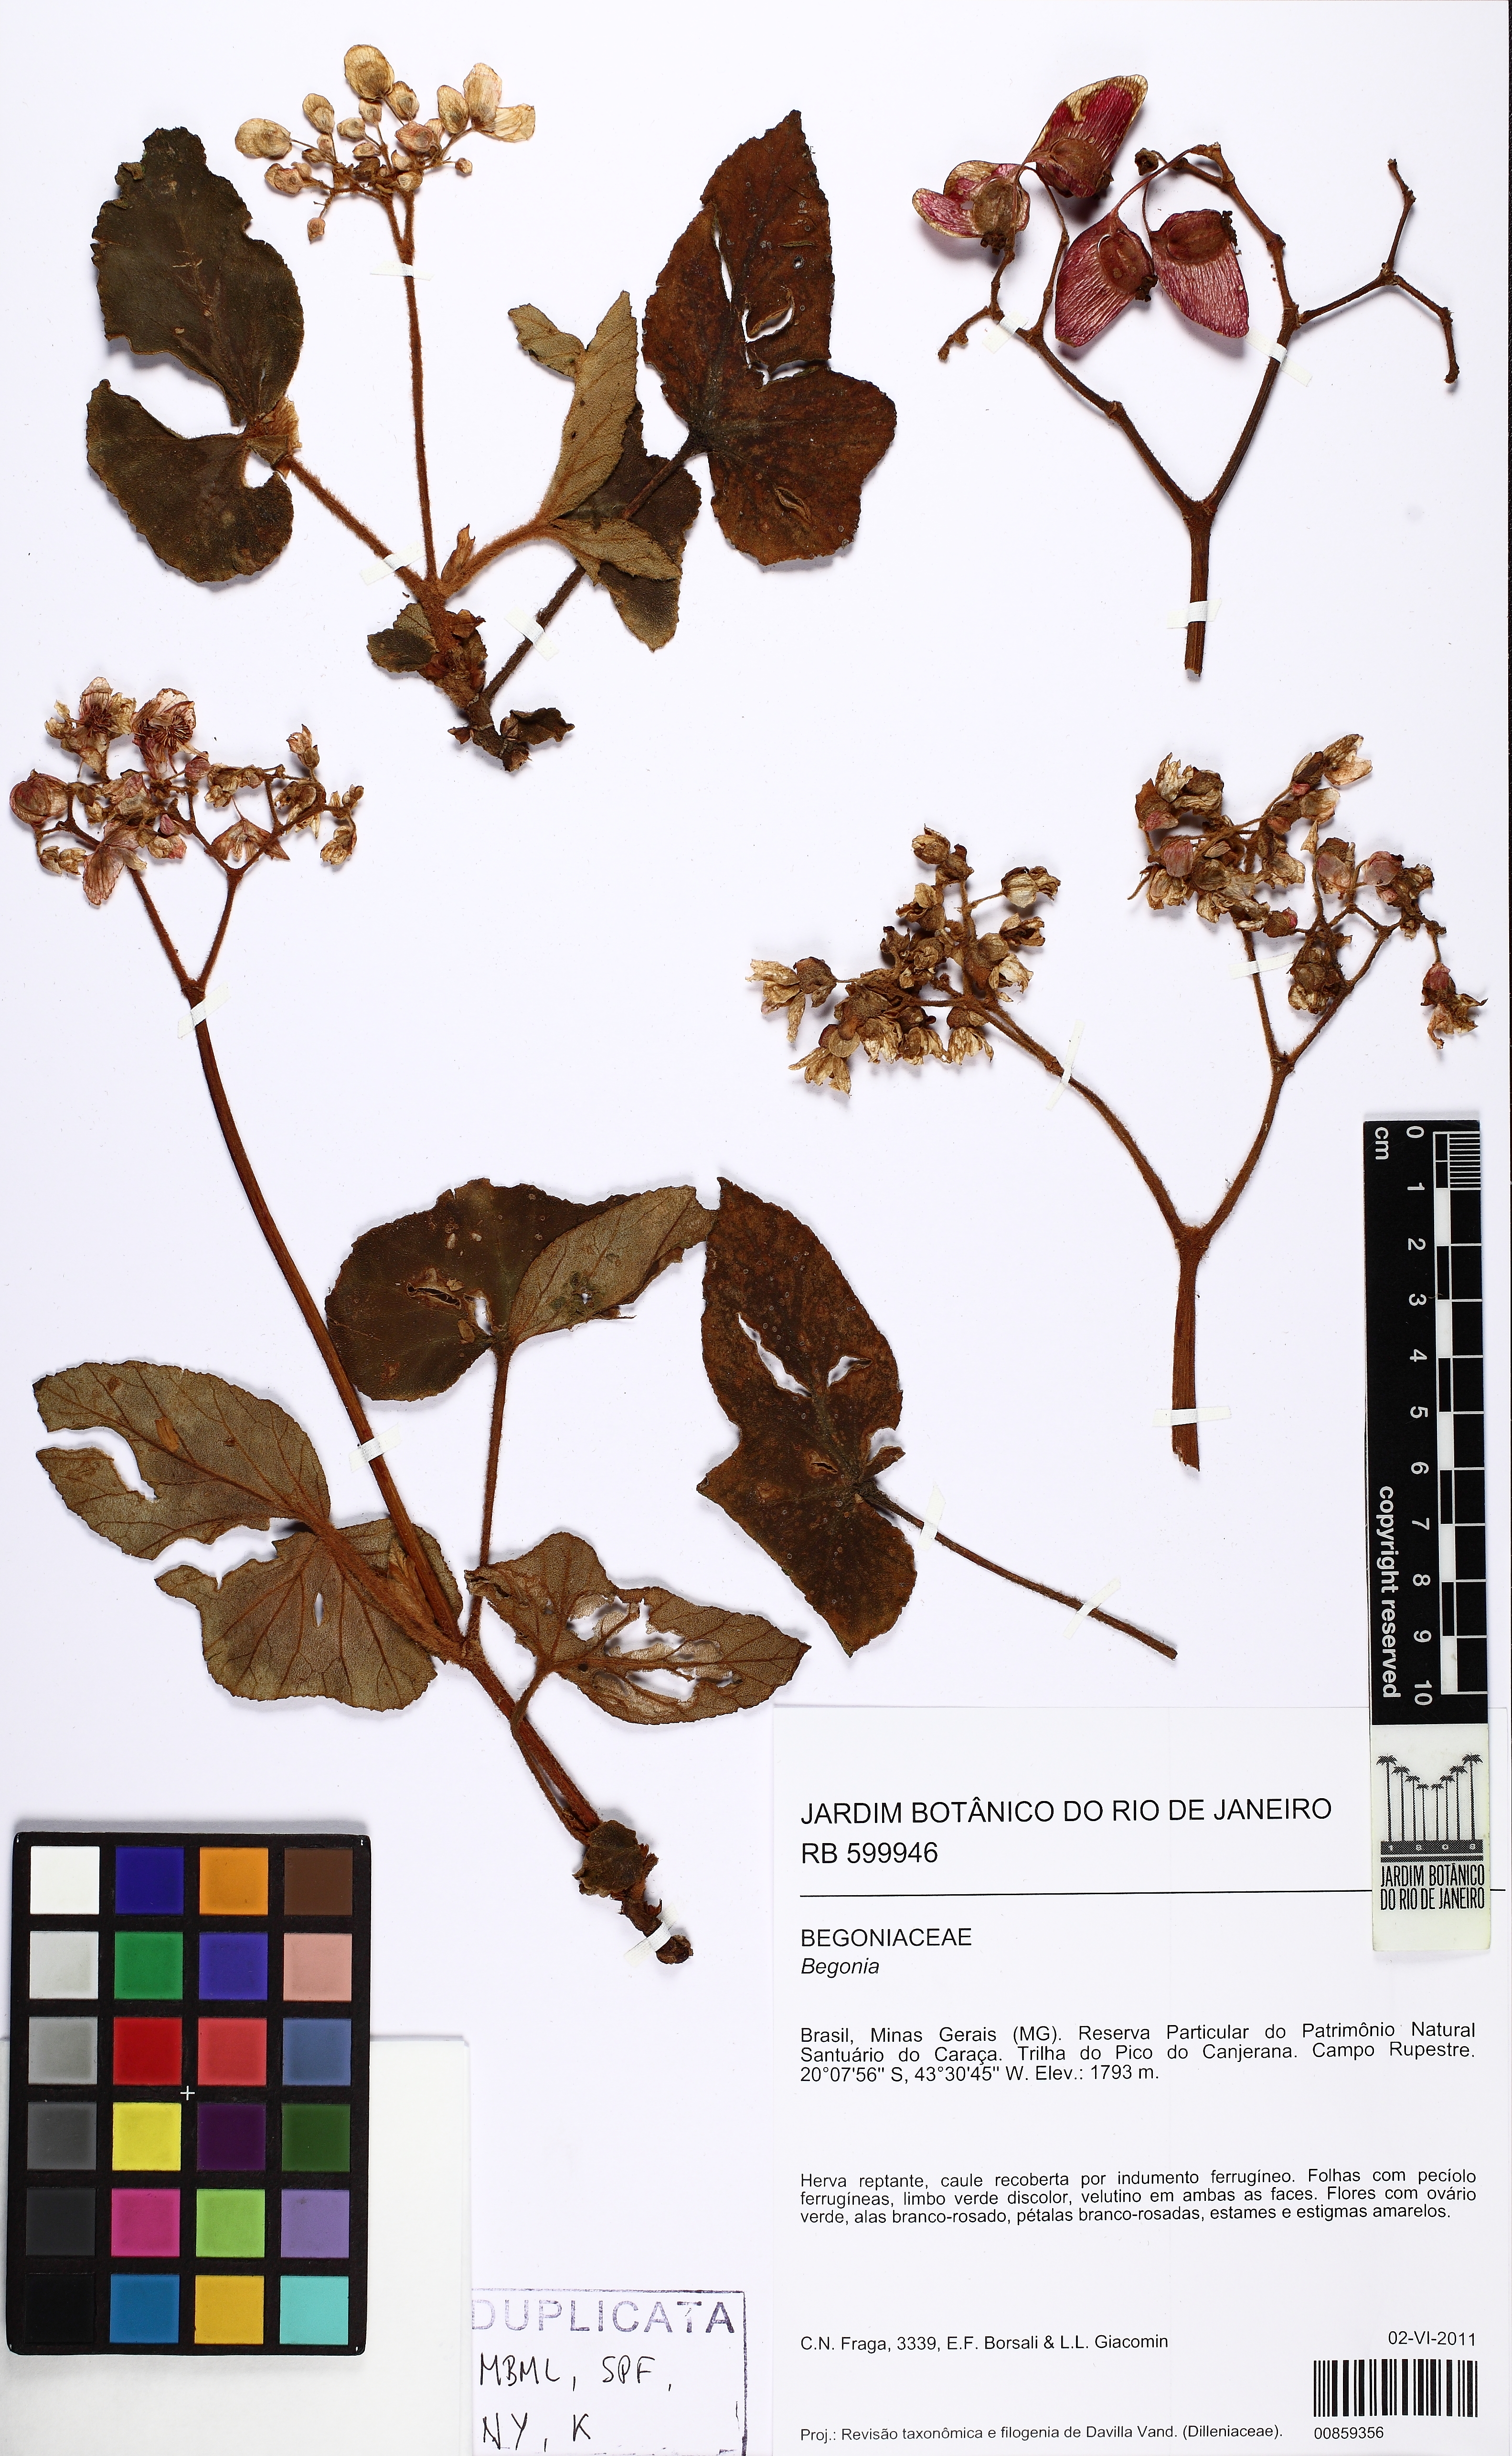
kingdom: Plantae
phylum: Tracheophyta
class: Magnoliopsida
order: Cucurbitales
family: Begoniaceae
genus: Begonia
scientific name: Begonia rufa
